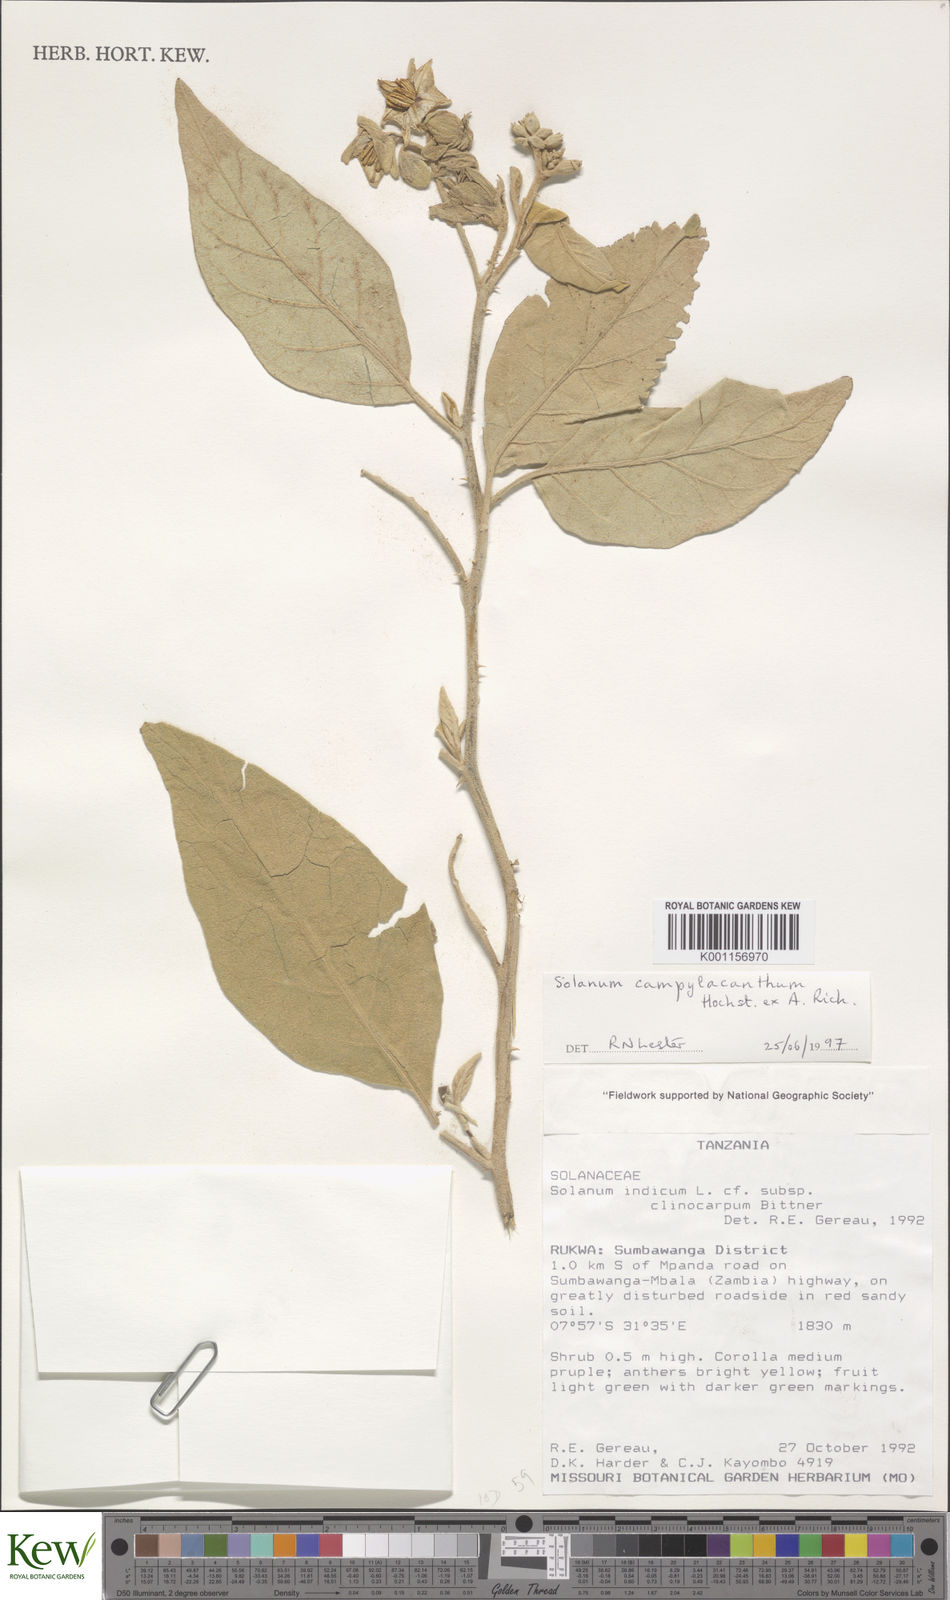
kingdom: Plantae
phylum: Tracheophyta
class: Magnoliopsida
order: Solanales
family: Solanaceae
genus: Solanum
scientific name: Solanum anguivi
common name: Forest bitterberry
